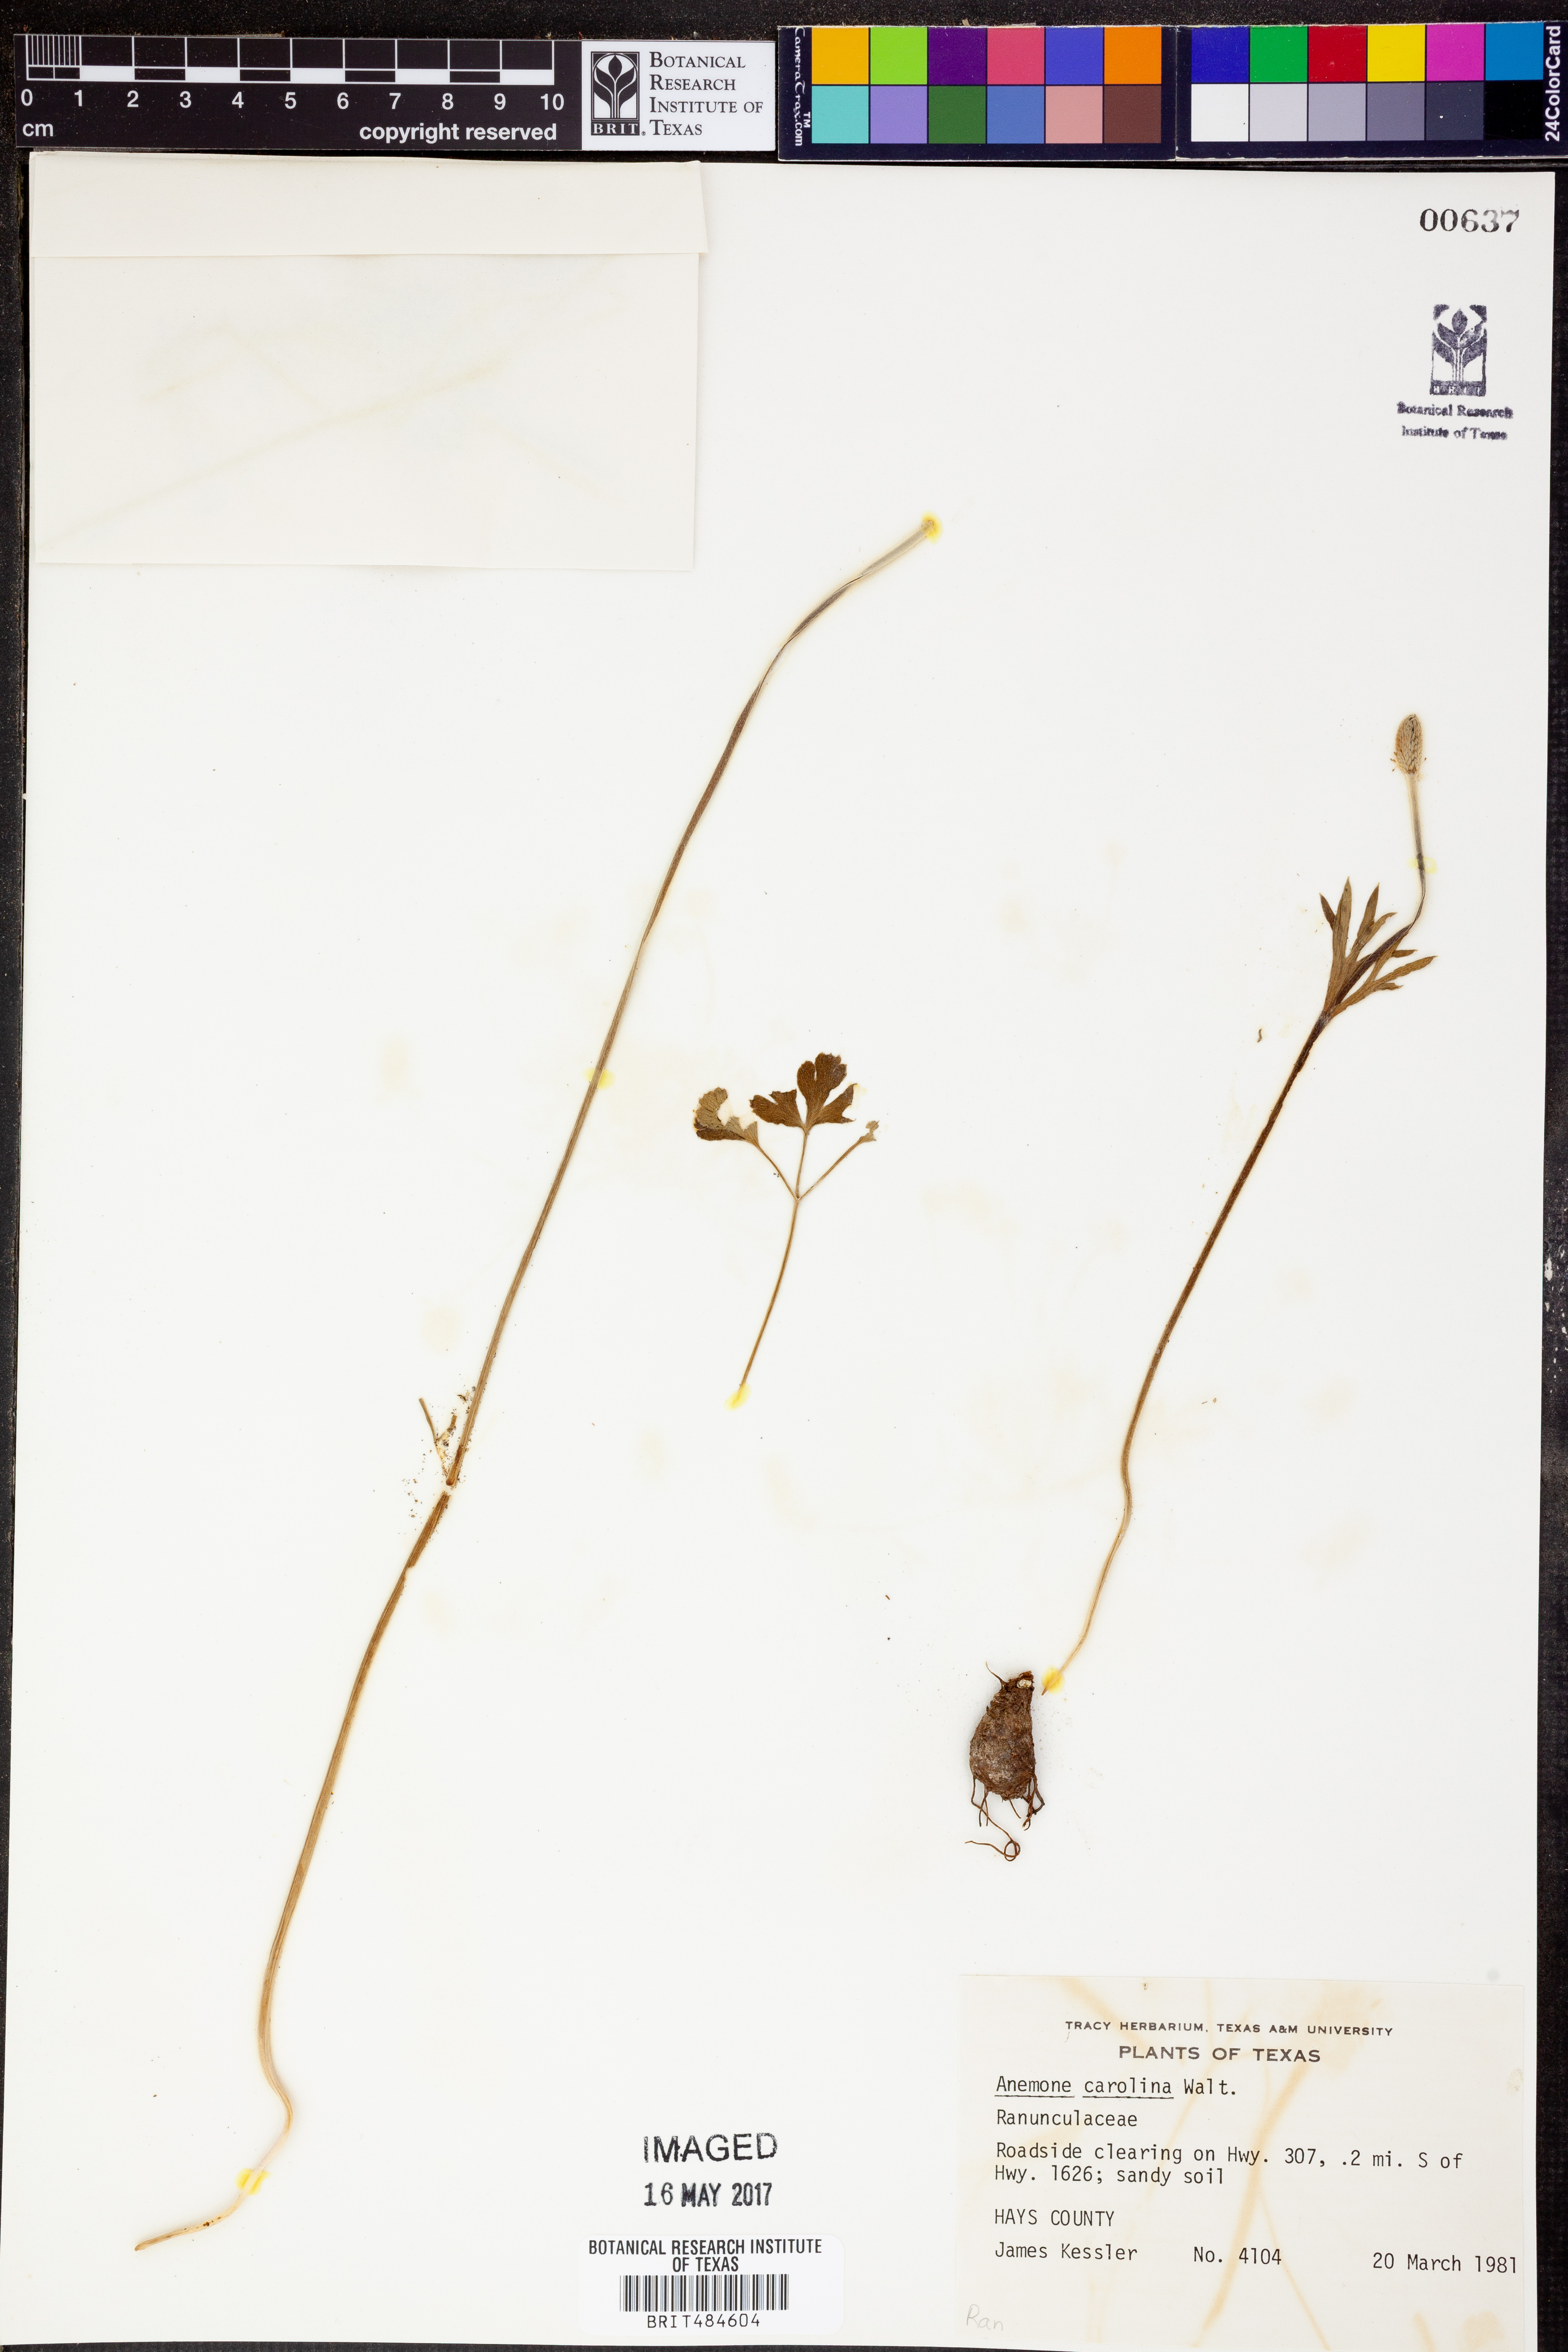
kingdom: Plantae
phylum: Tracheophyta
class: Magnoliopsida
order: Ranunculales
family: Ranunculaceae
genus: Anemone
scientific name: Anemone caroliniana
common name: Carolina anemone
